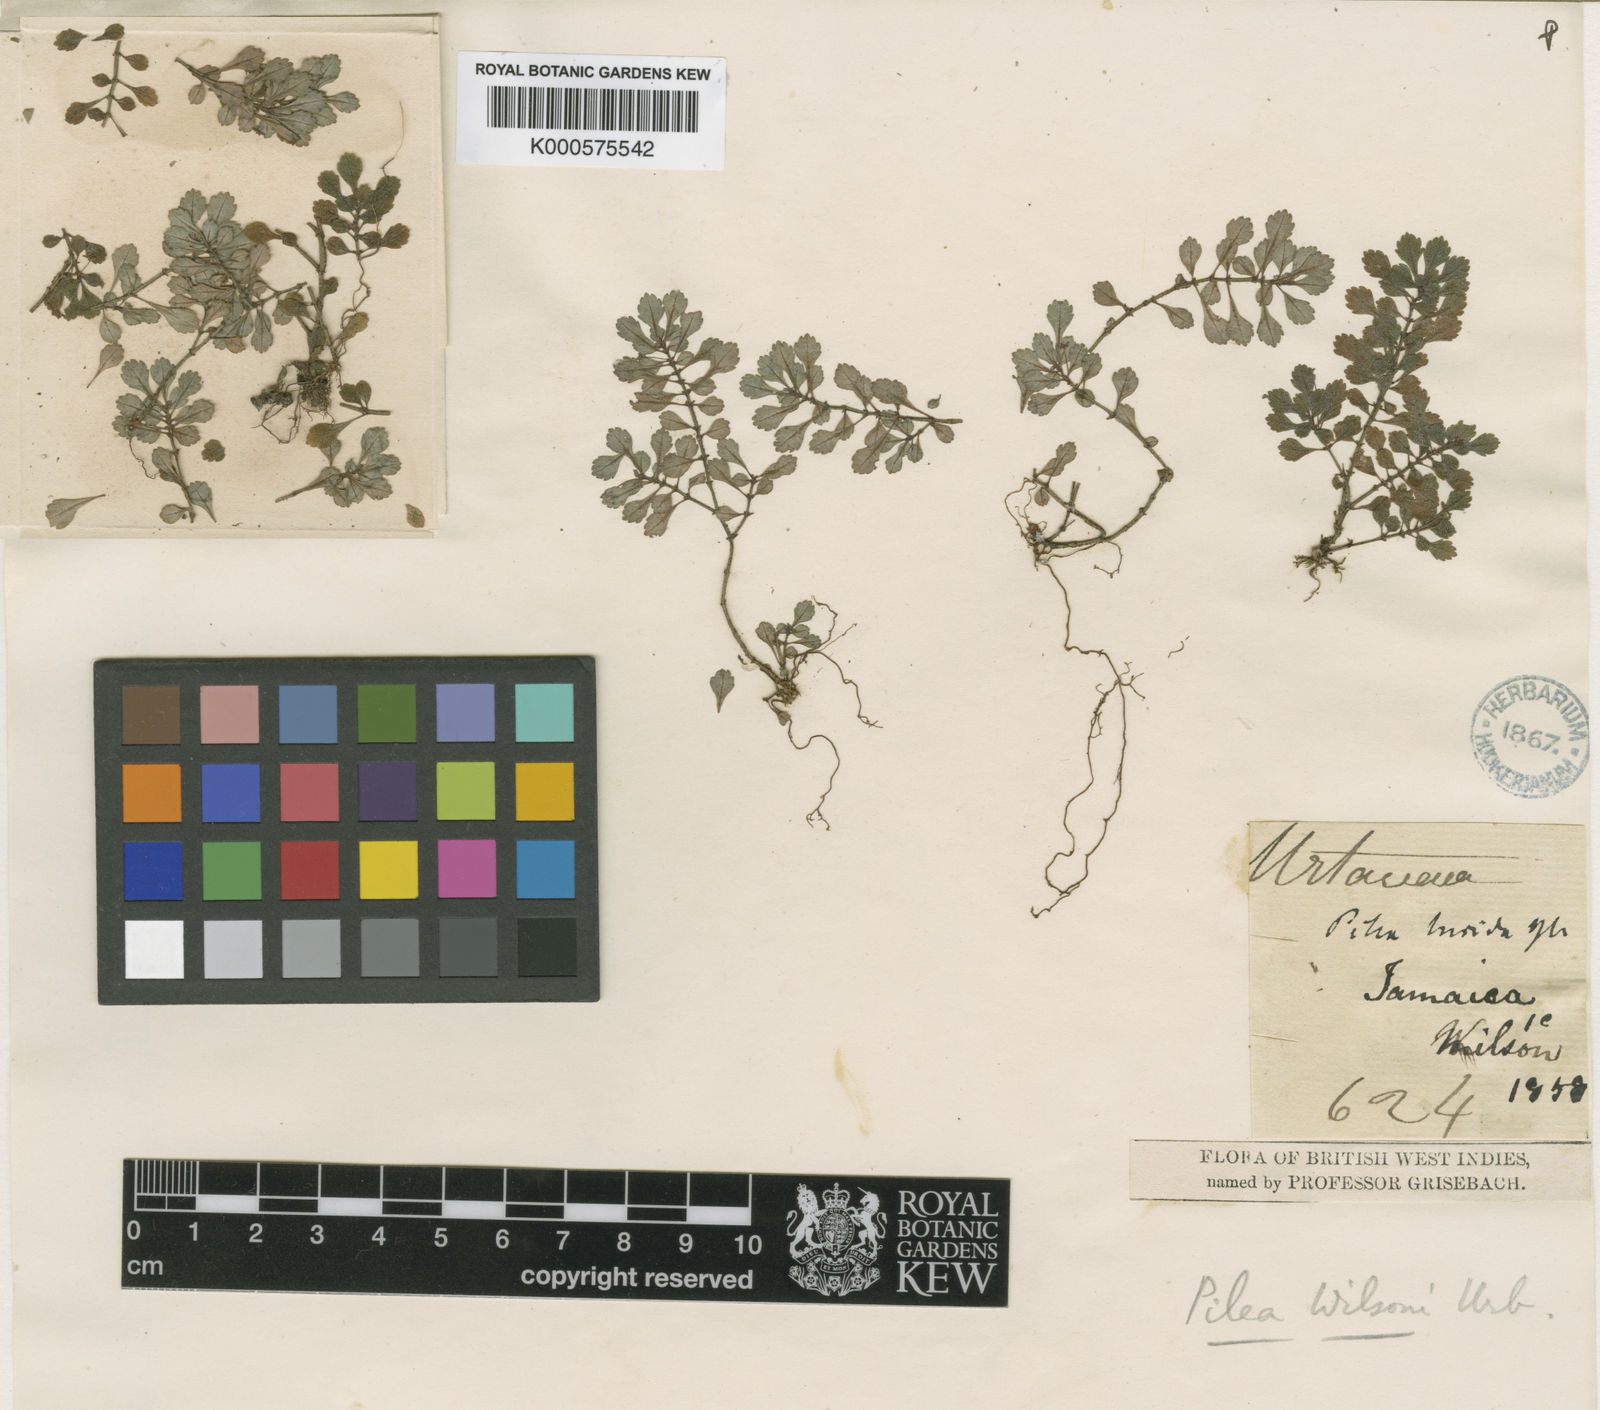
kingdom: Plantae
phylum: Tracheophyta
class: Magnoliopsida
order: Rosales
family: Urticaceae
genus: Pilea
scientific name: Pilea wilsonii
